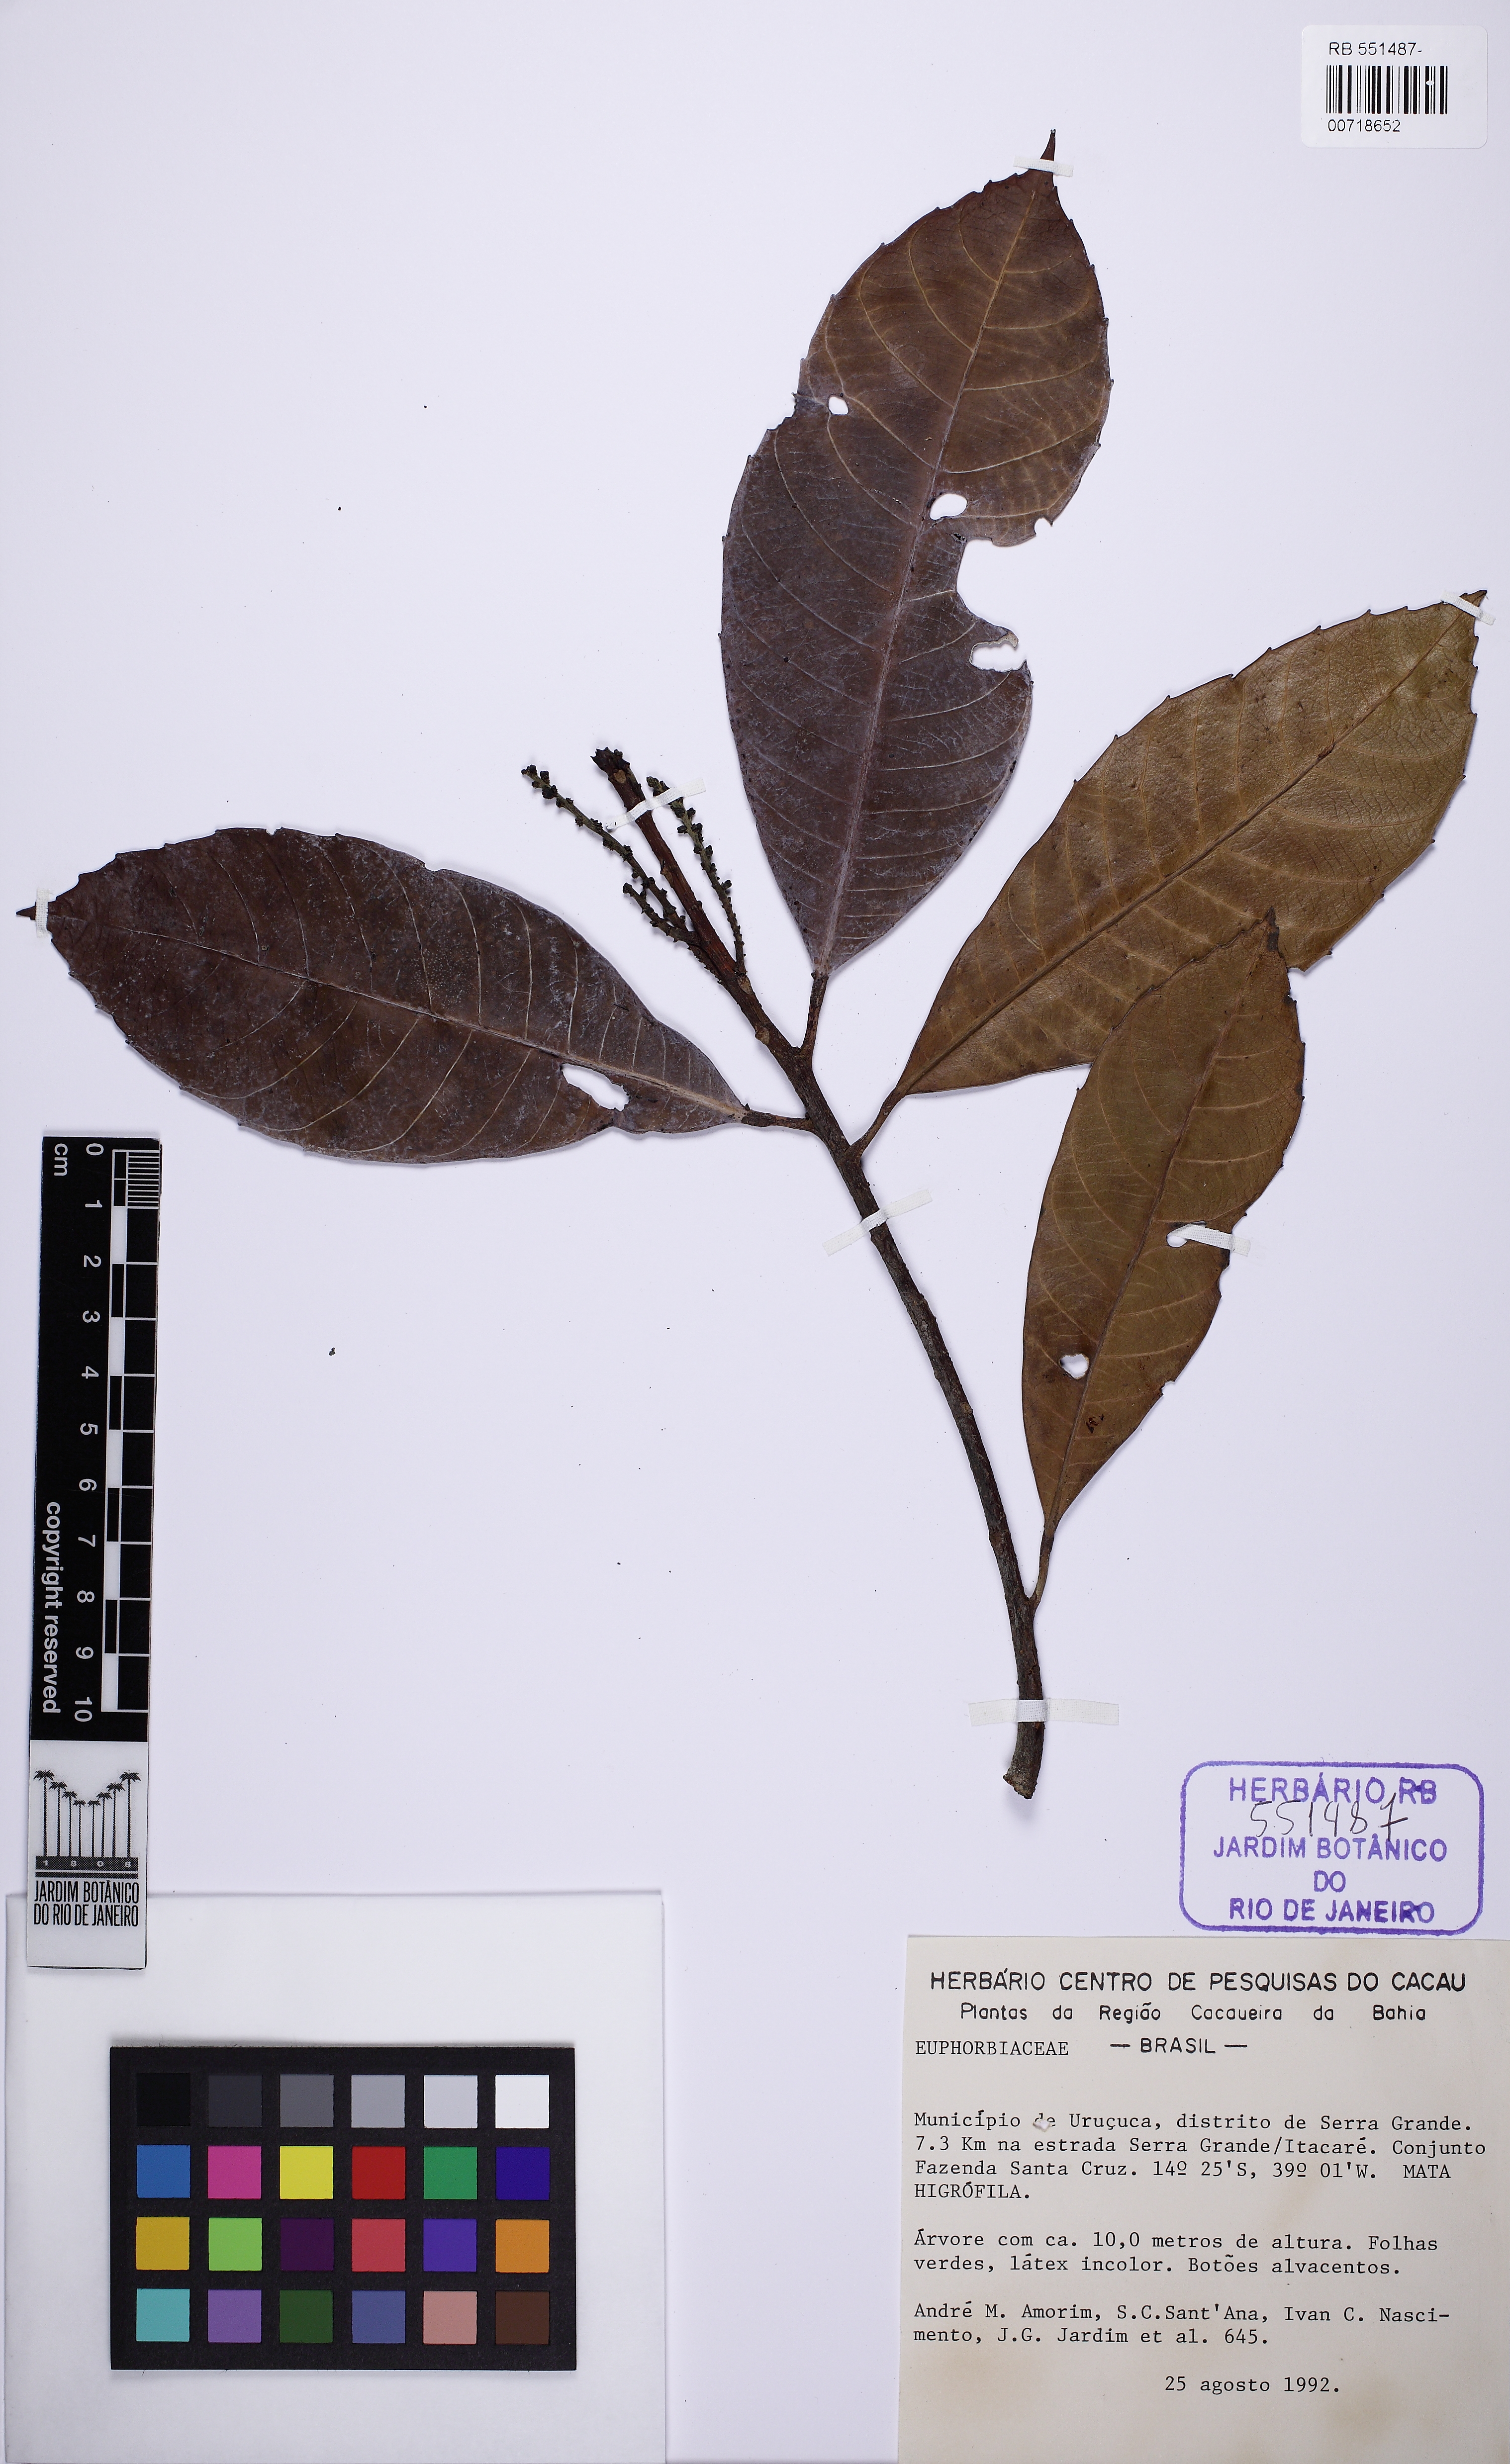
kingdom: Plantae
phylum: Tracheophyta
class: Magnoliopsida
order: Malpighiales
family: Euphorbiaceae
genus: Pausandra
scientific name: Pausandra
